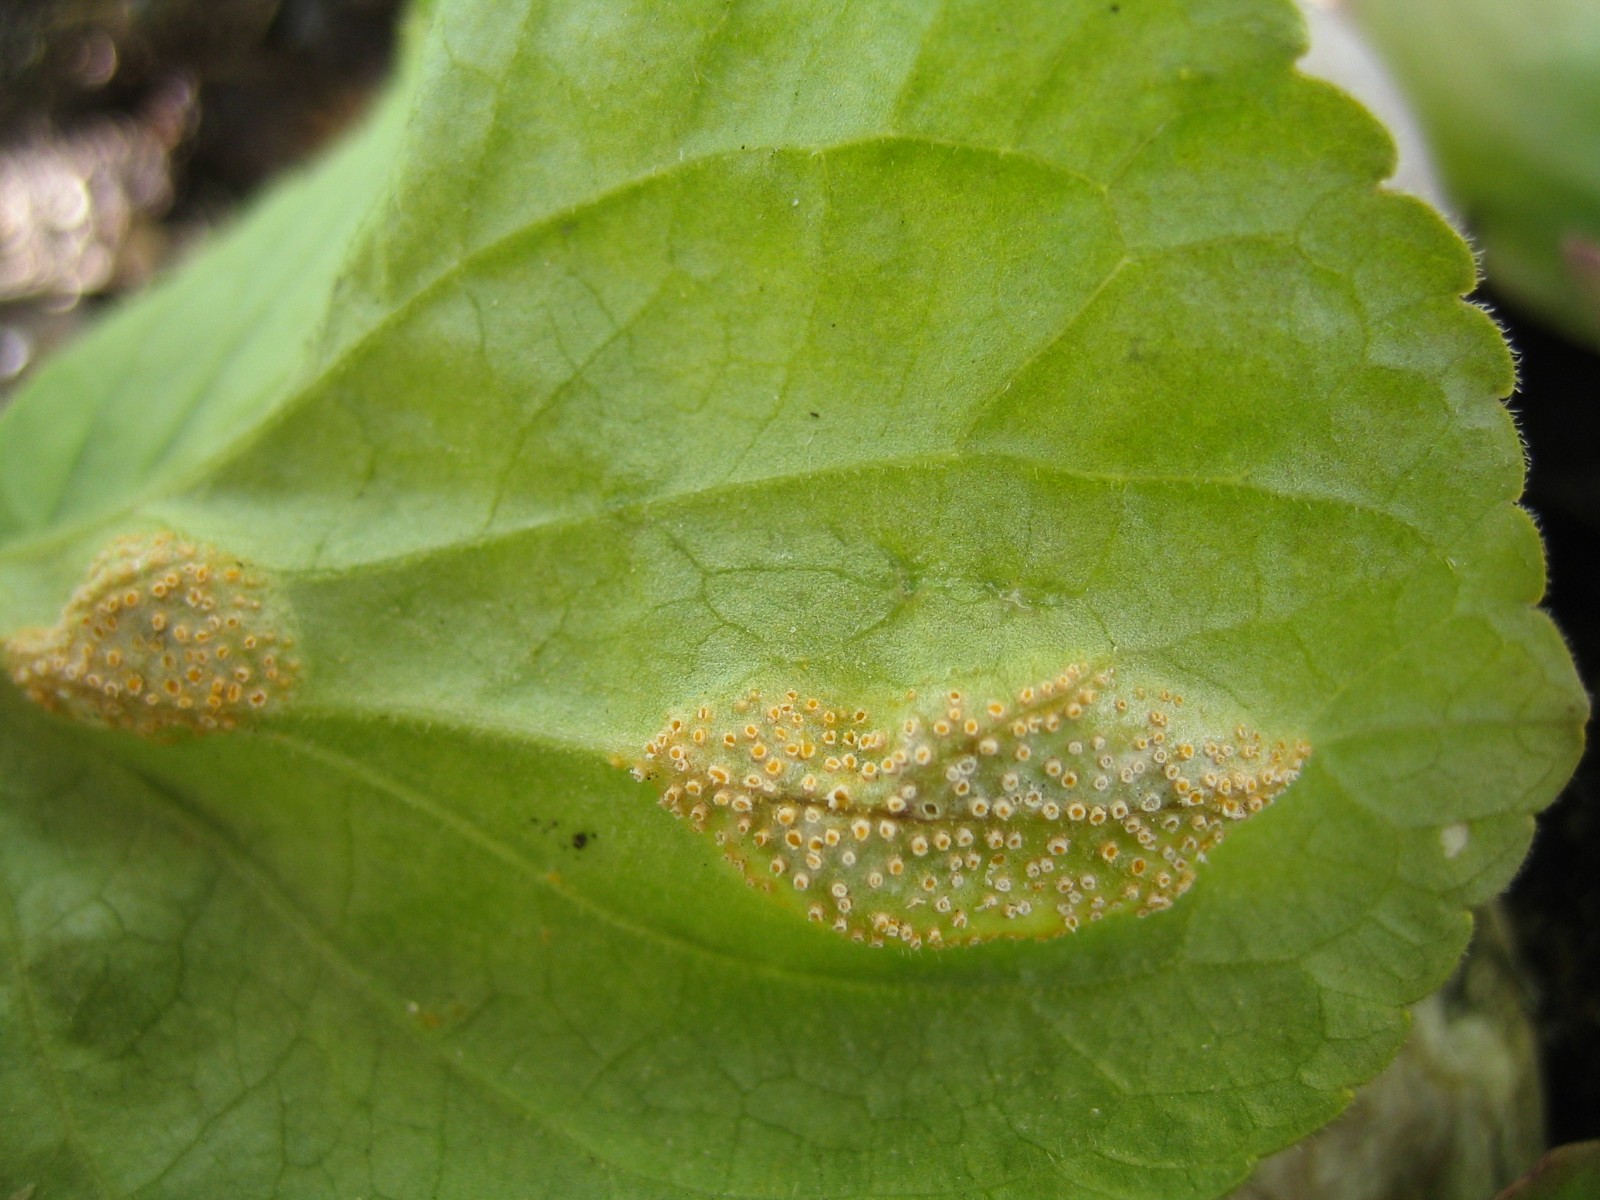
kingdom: Fungi
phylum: Basidiomycota
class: Pucciniomycetes
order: Pucciniales
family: Pucciniaceae
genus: Puccinia
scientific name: Puccinia violae
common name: viol-tvecellerust
